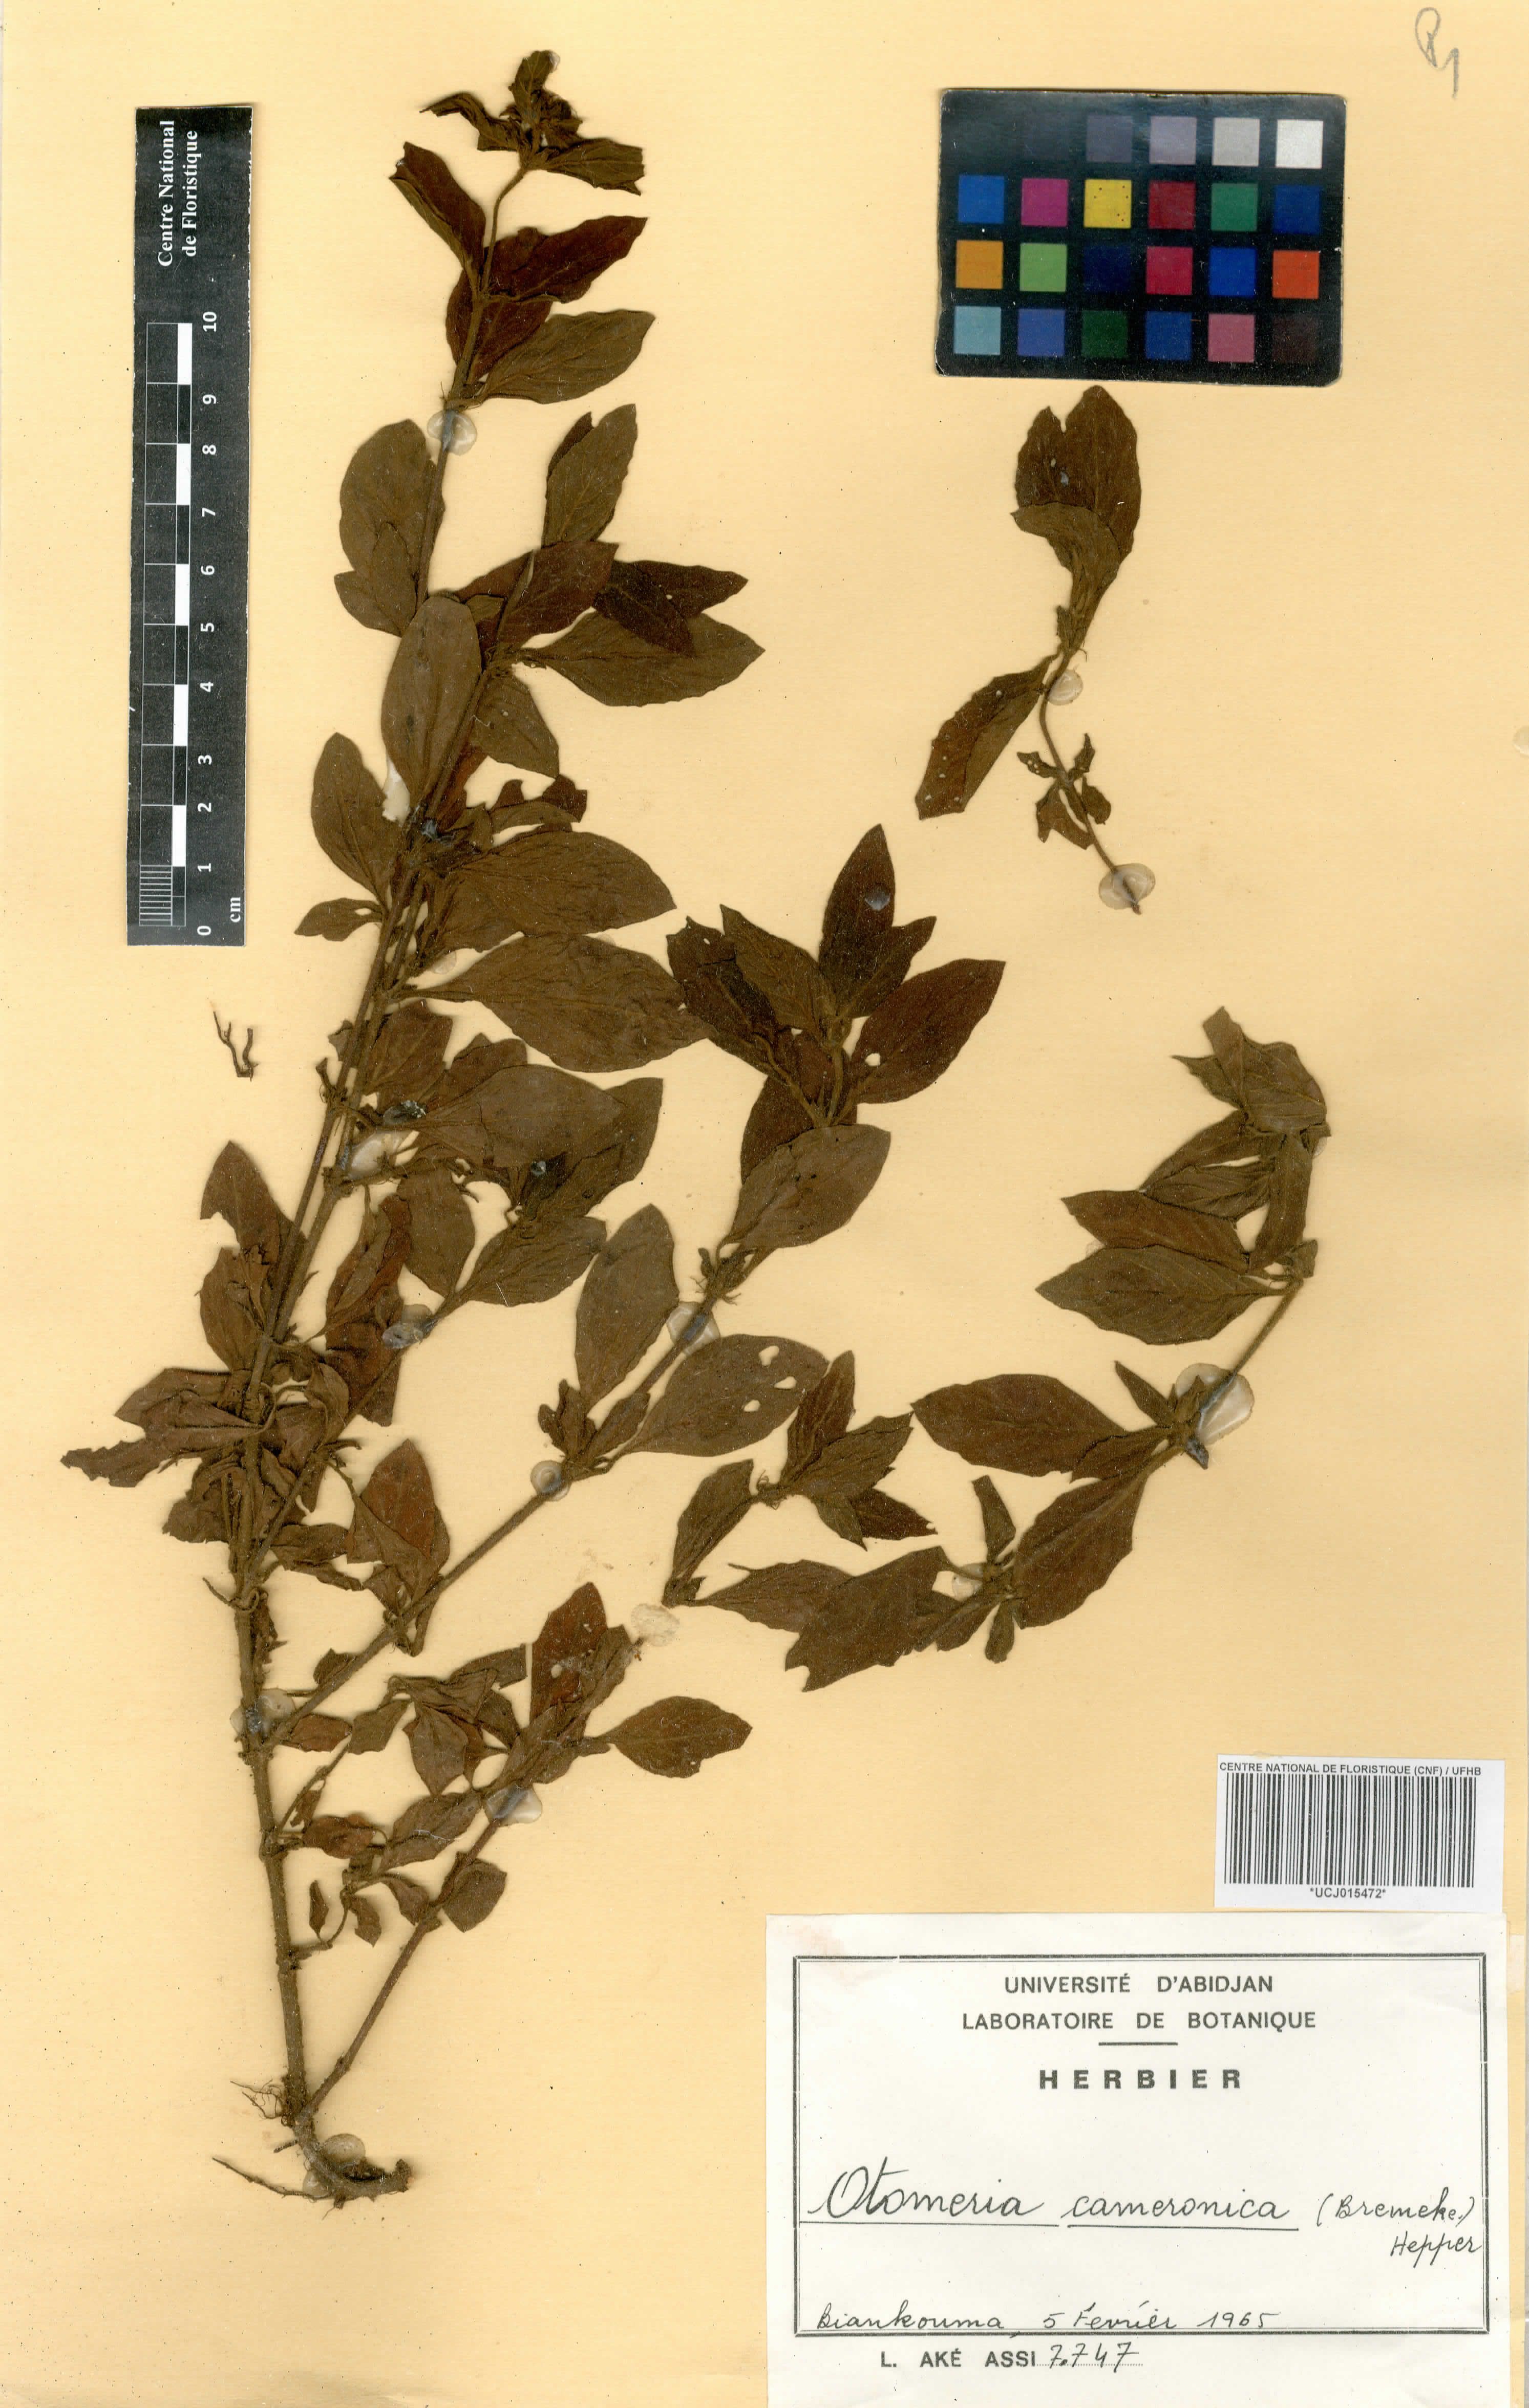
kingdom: Plantae
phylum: Tracheophyta
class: Magnoliopsida
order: Gentianales
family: Rubiaceae
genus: Otomeria
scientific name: Otomeria cameronica
